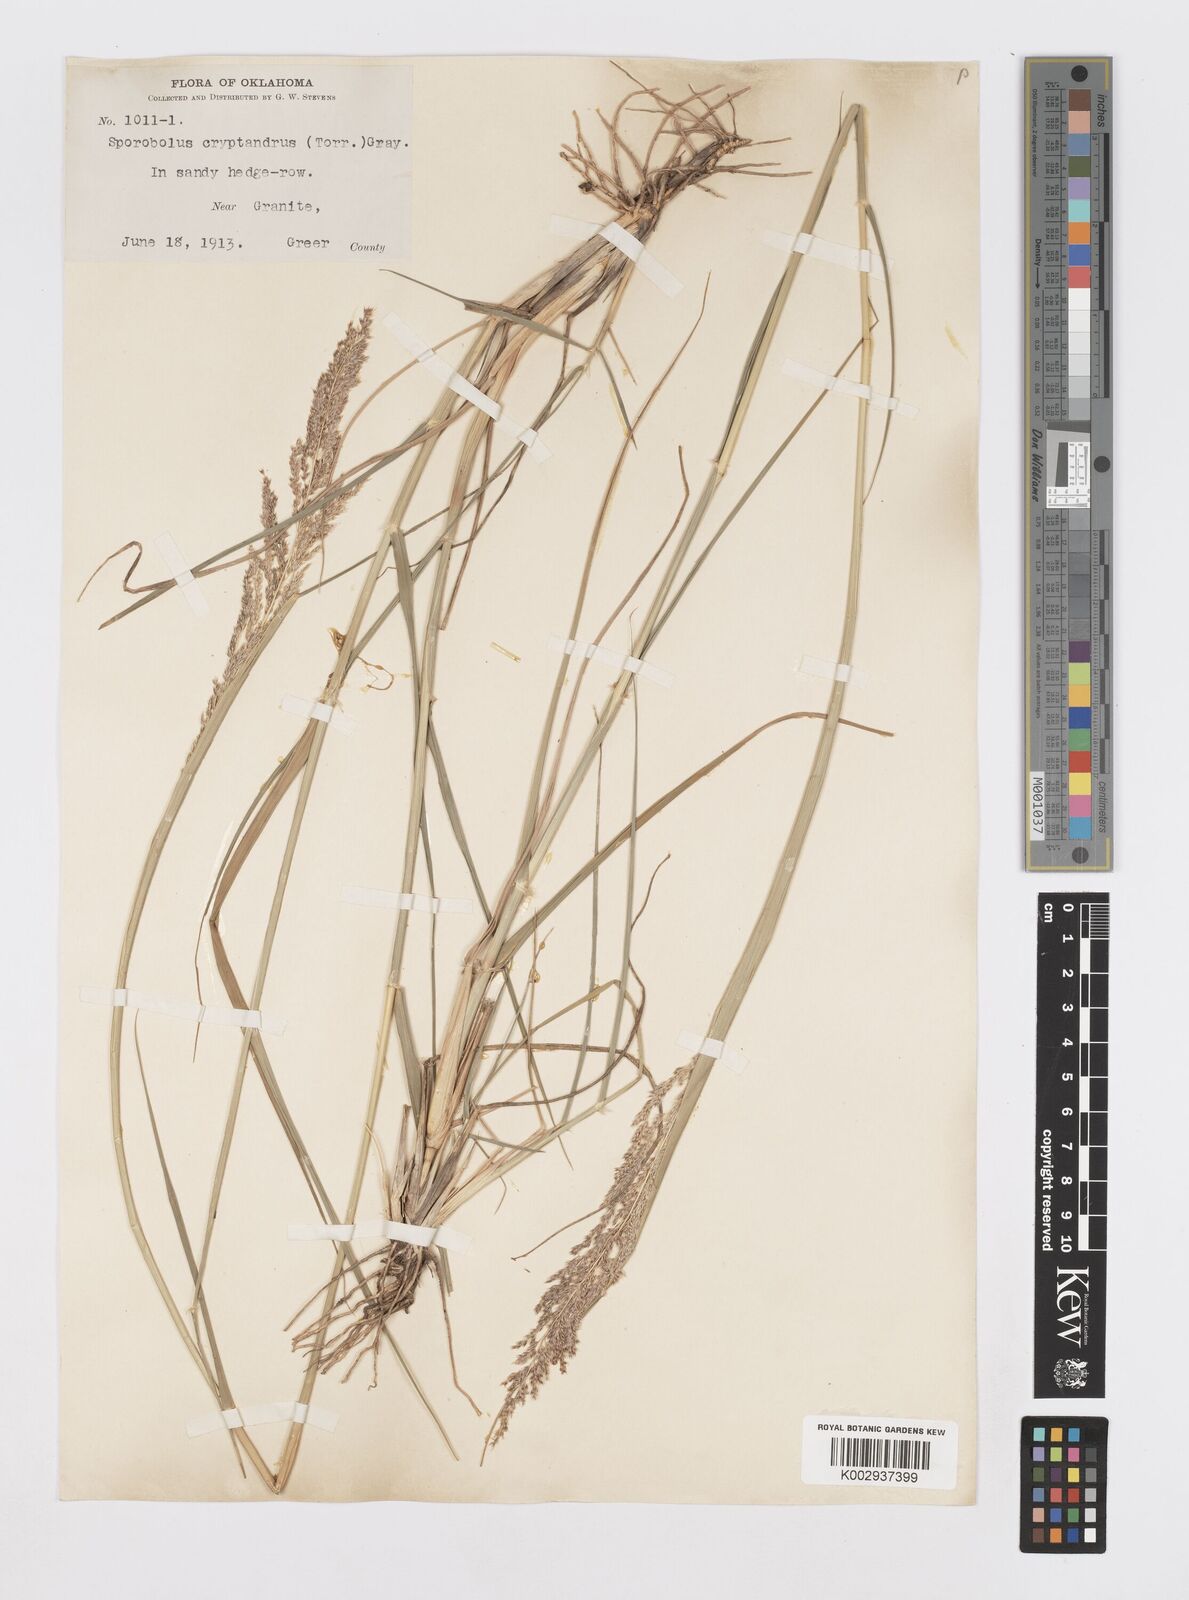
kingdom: Plantae
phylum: Tracheophyta
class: Liliopsida
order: Poales
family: Poaceae
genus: Sporobolus
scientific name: Sporobolus cryptandrus
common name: Sand dropseed
